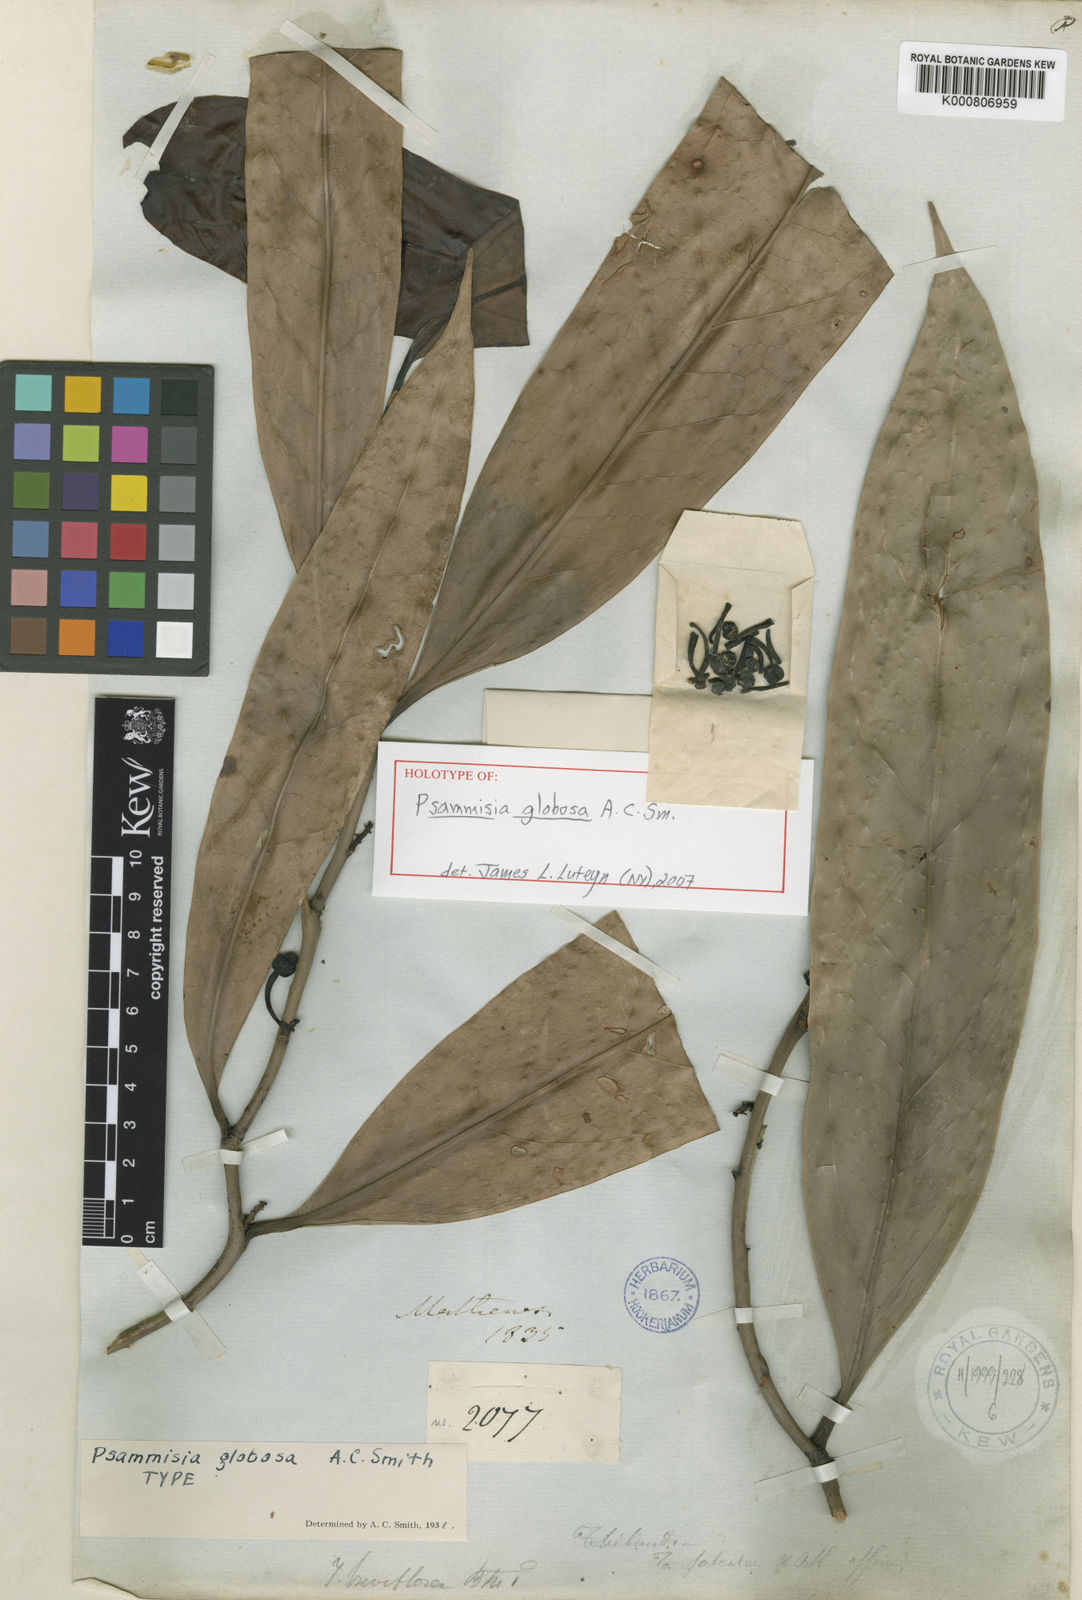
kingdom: Plantae
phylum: Tracheophyta
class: Magnoliopsida
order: Ericales
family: Ericaceae
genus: Psammisia
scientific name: Psammisia globosa
